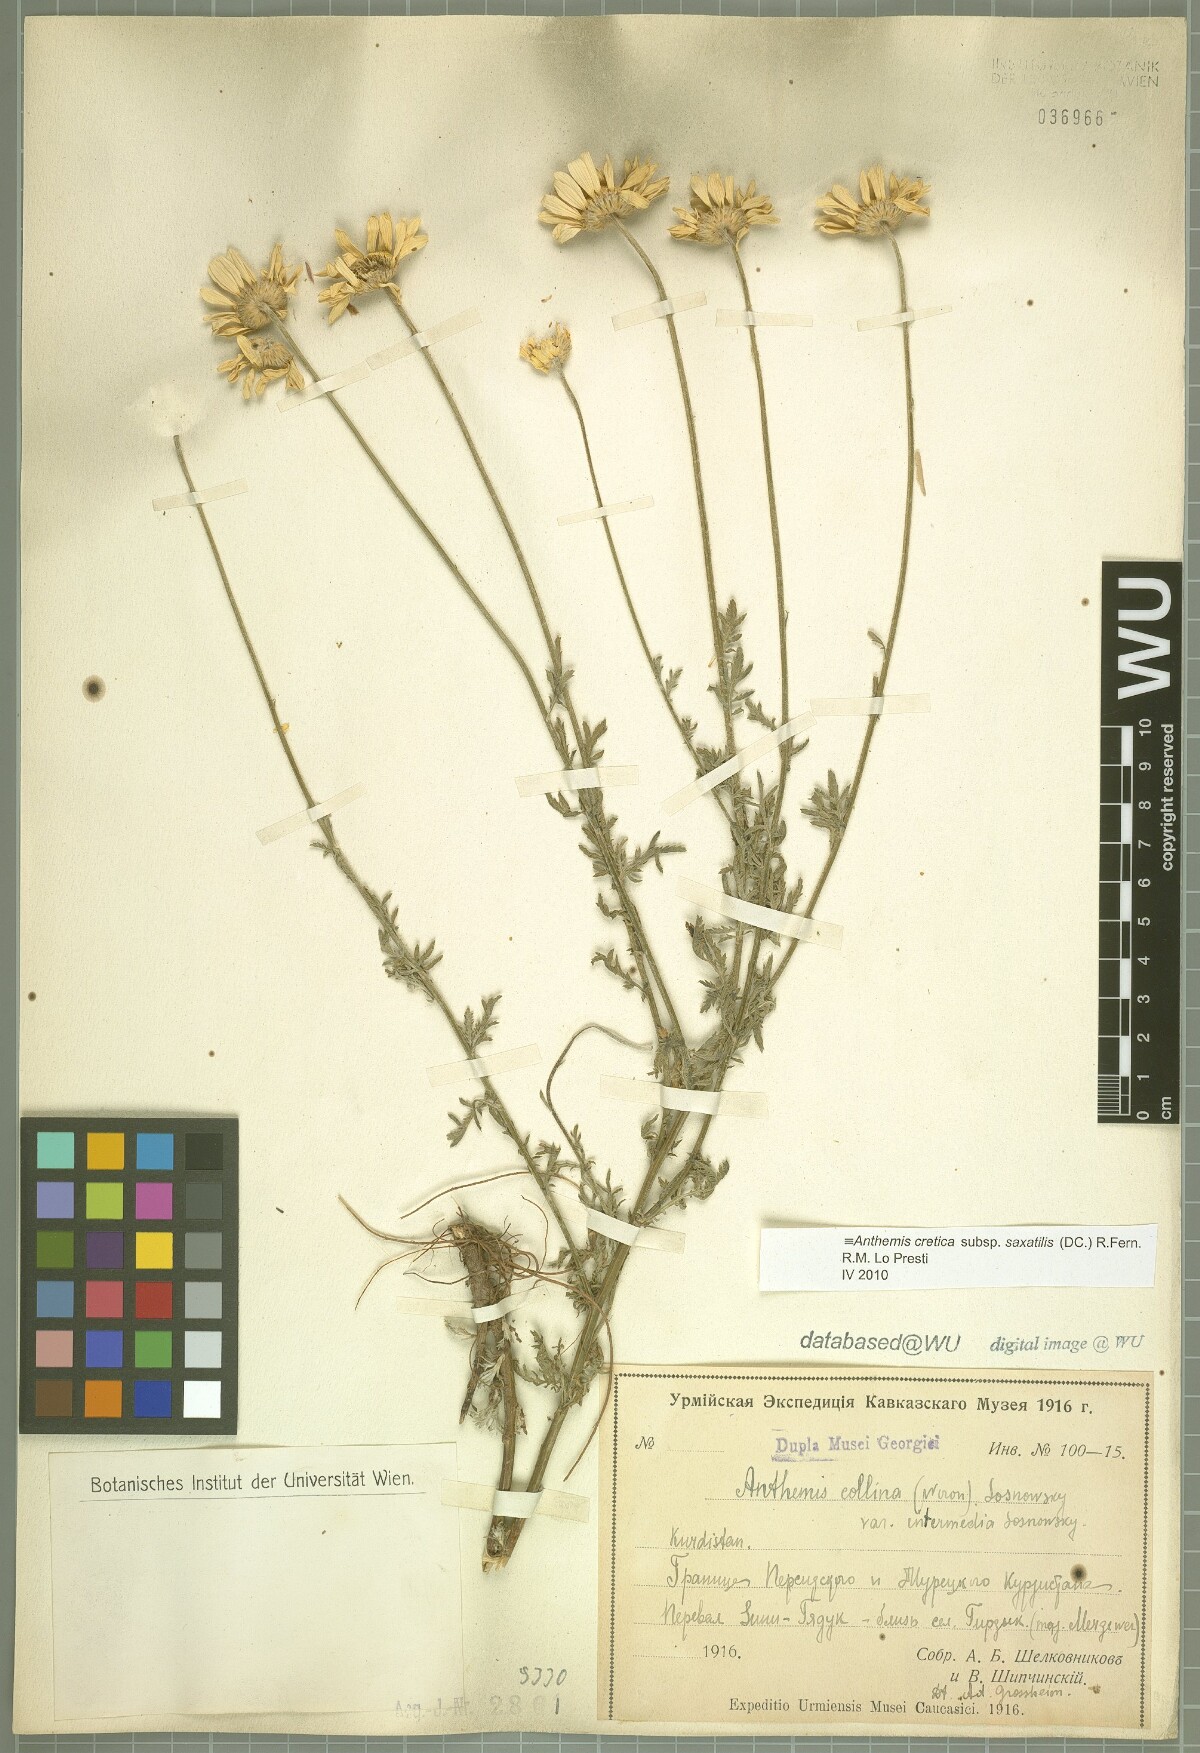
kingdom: Plantae
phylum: Tracheophyta
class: Magnoliopsida
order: Asterales
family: Asteraceae
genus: Anthemis
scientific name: Anthemis cretica
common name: Mountain dog-daisy
